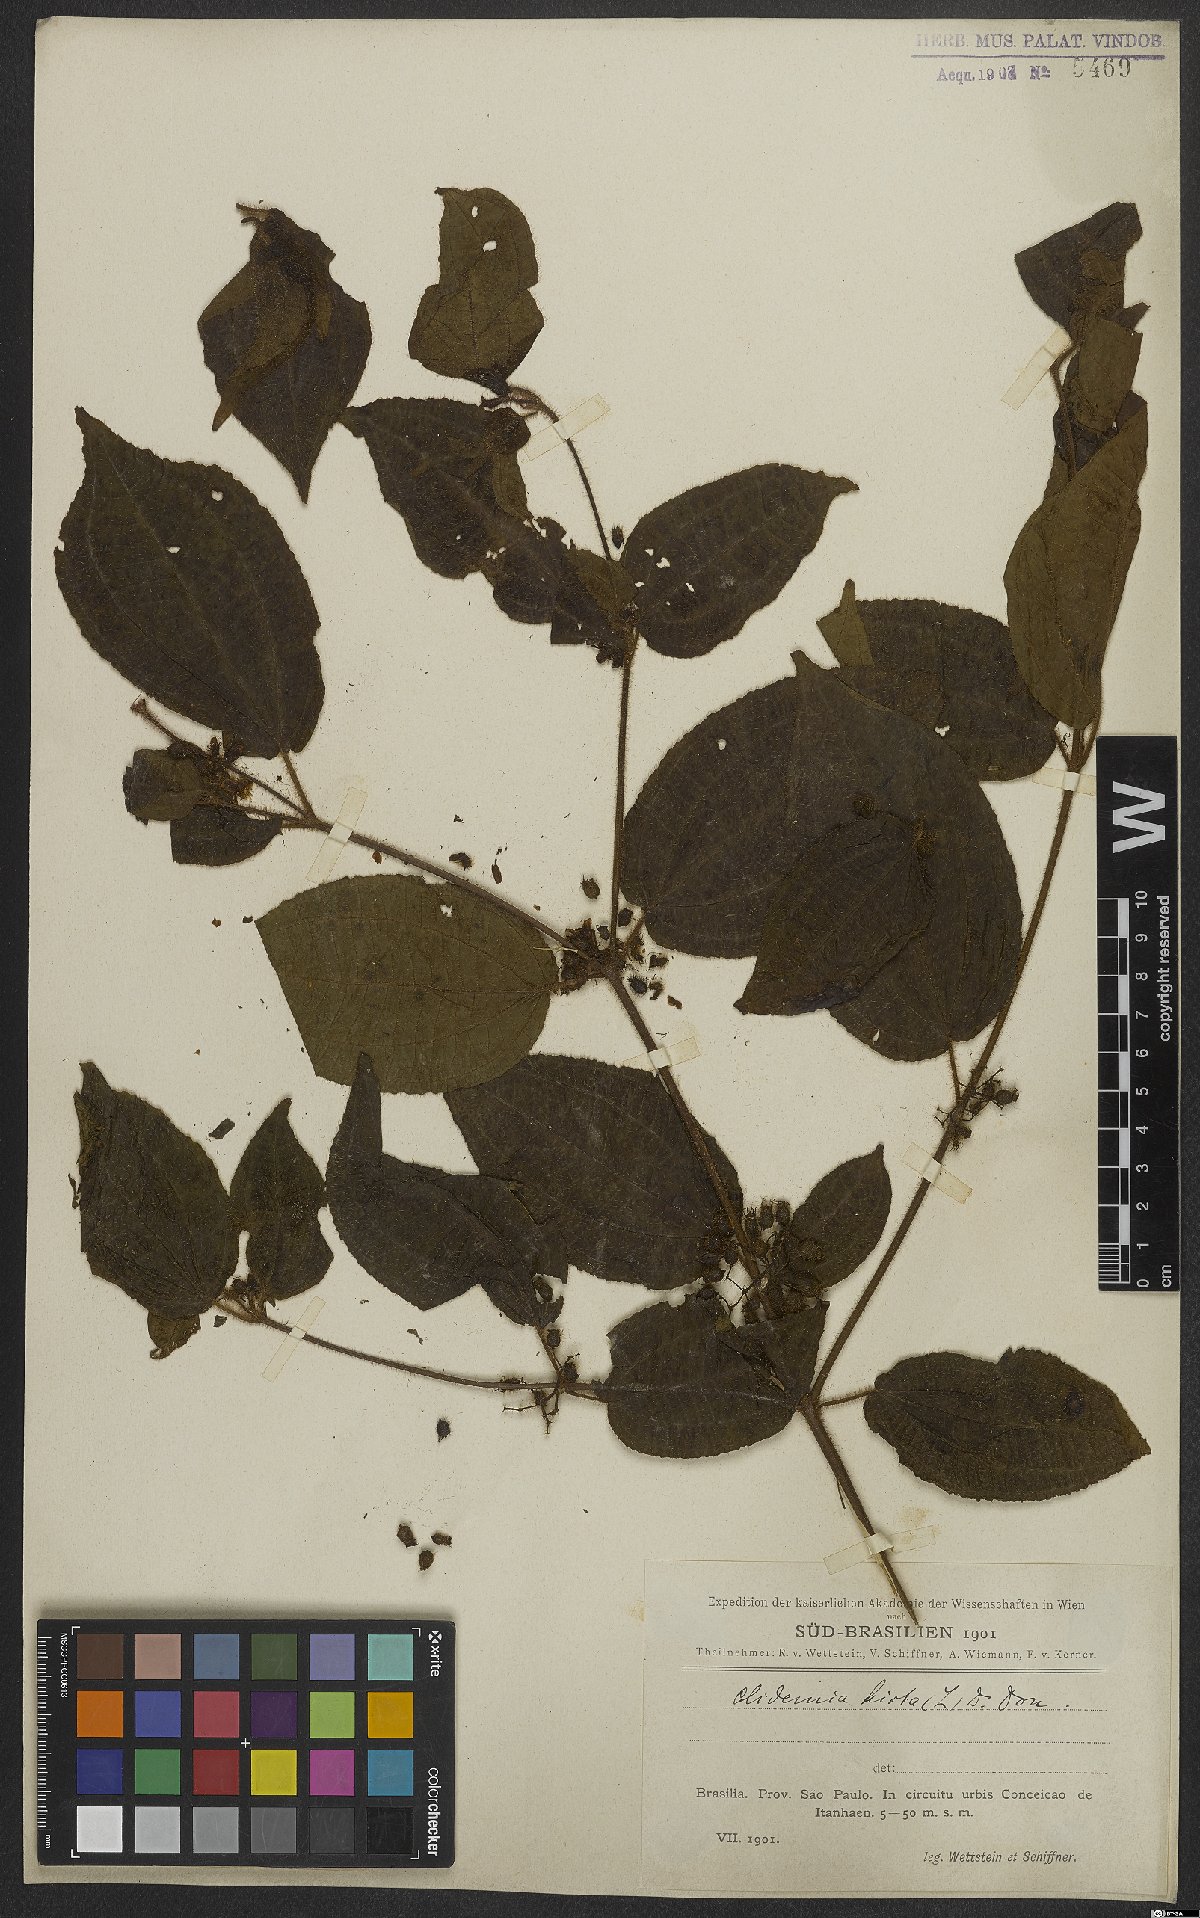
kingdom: Plantae
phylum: Tracheophyta
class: Magnoliopsida
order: Myrtales
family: Melastomataceae
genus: Miconia
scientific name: Miconia crenata
